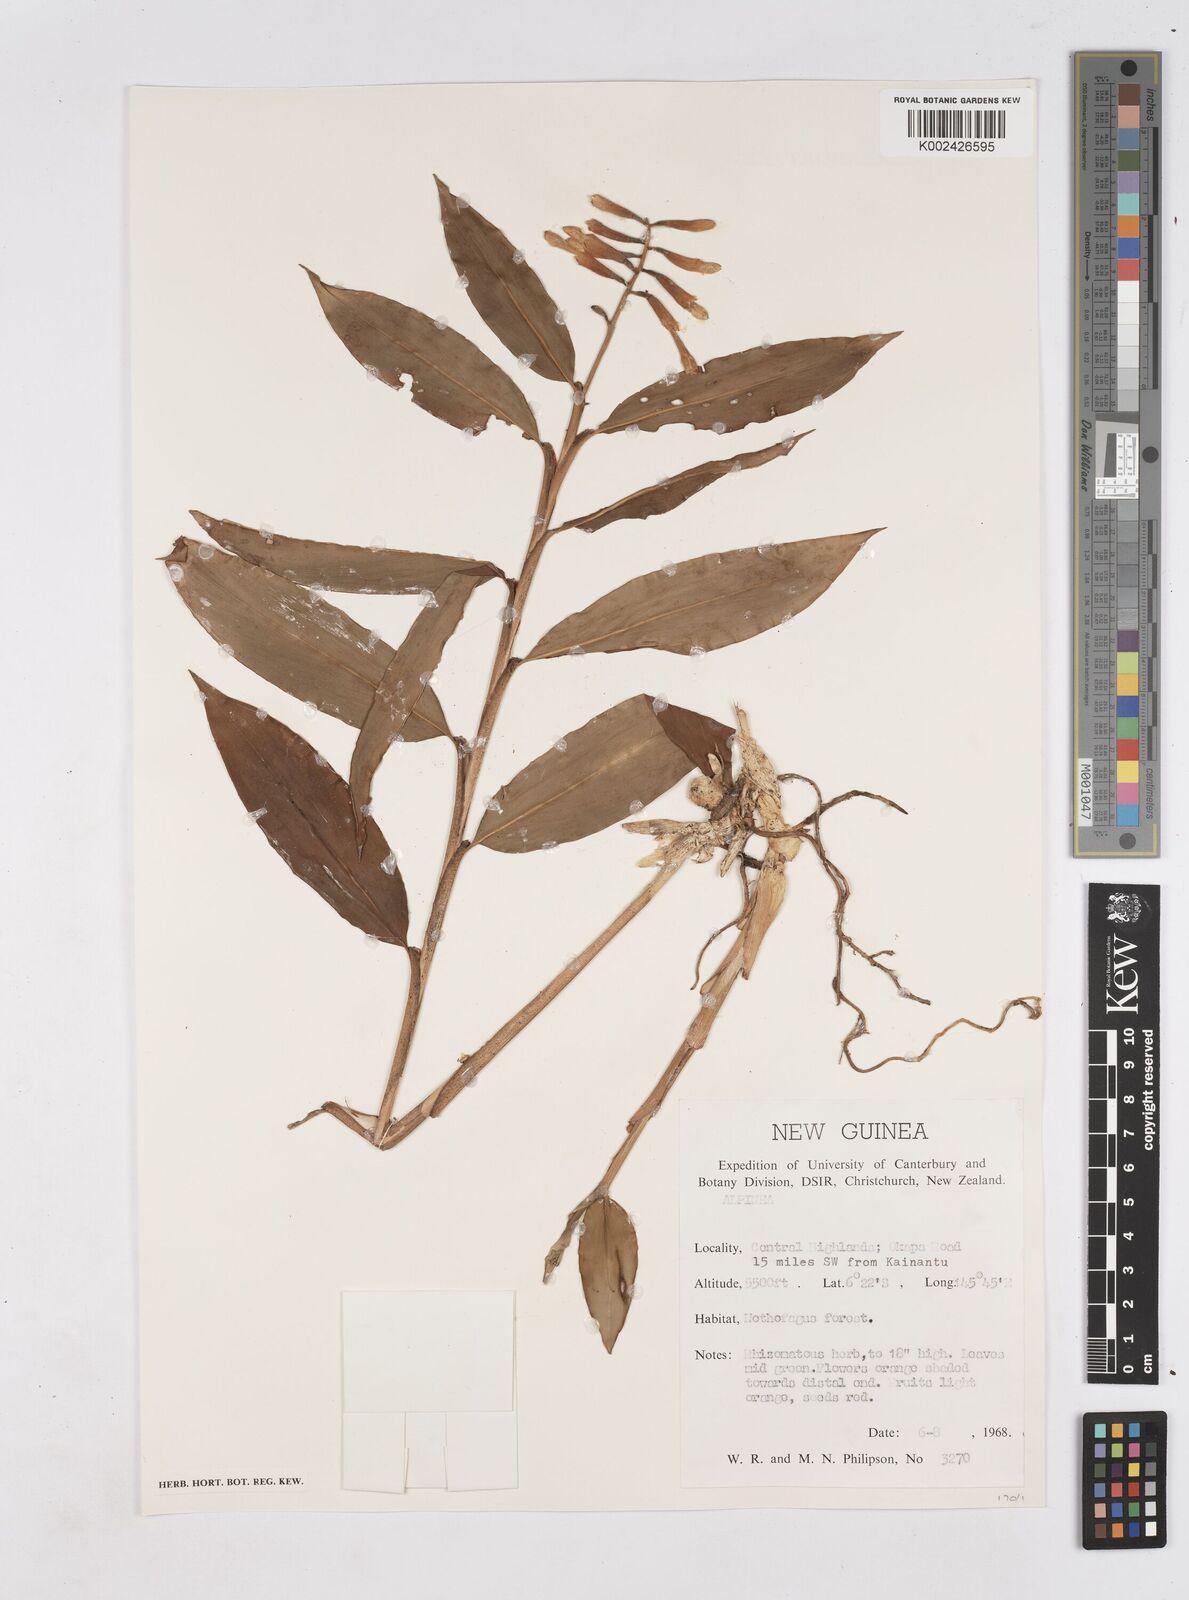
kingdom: Plantae
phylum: Tracheophyta
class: Liliopsida
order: Zingiberales
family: Zingiberaceae
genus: Riedelia
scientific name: Riedelia
